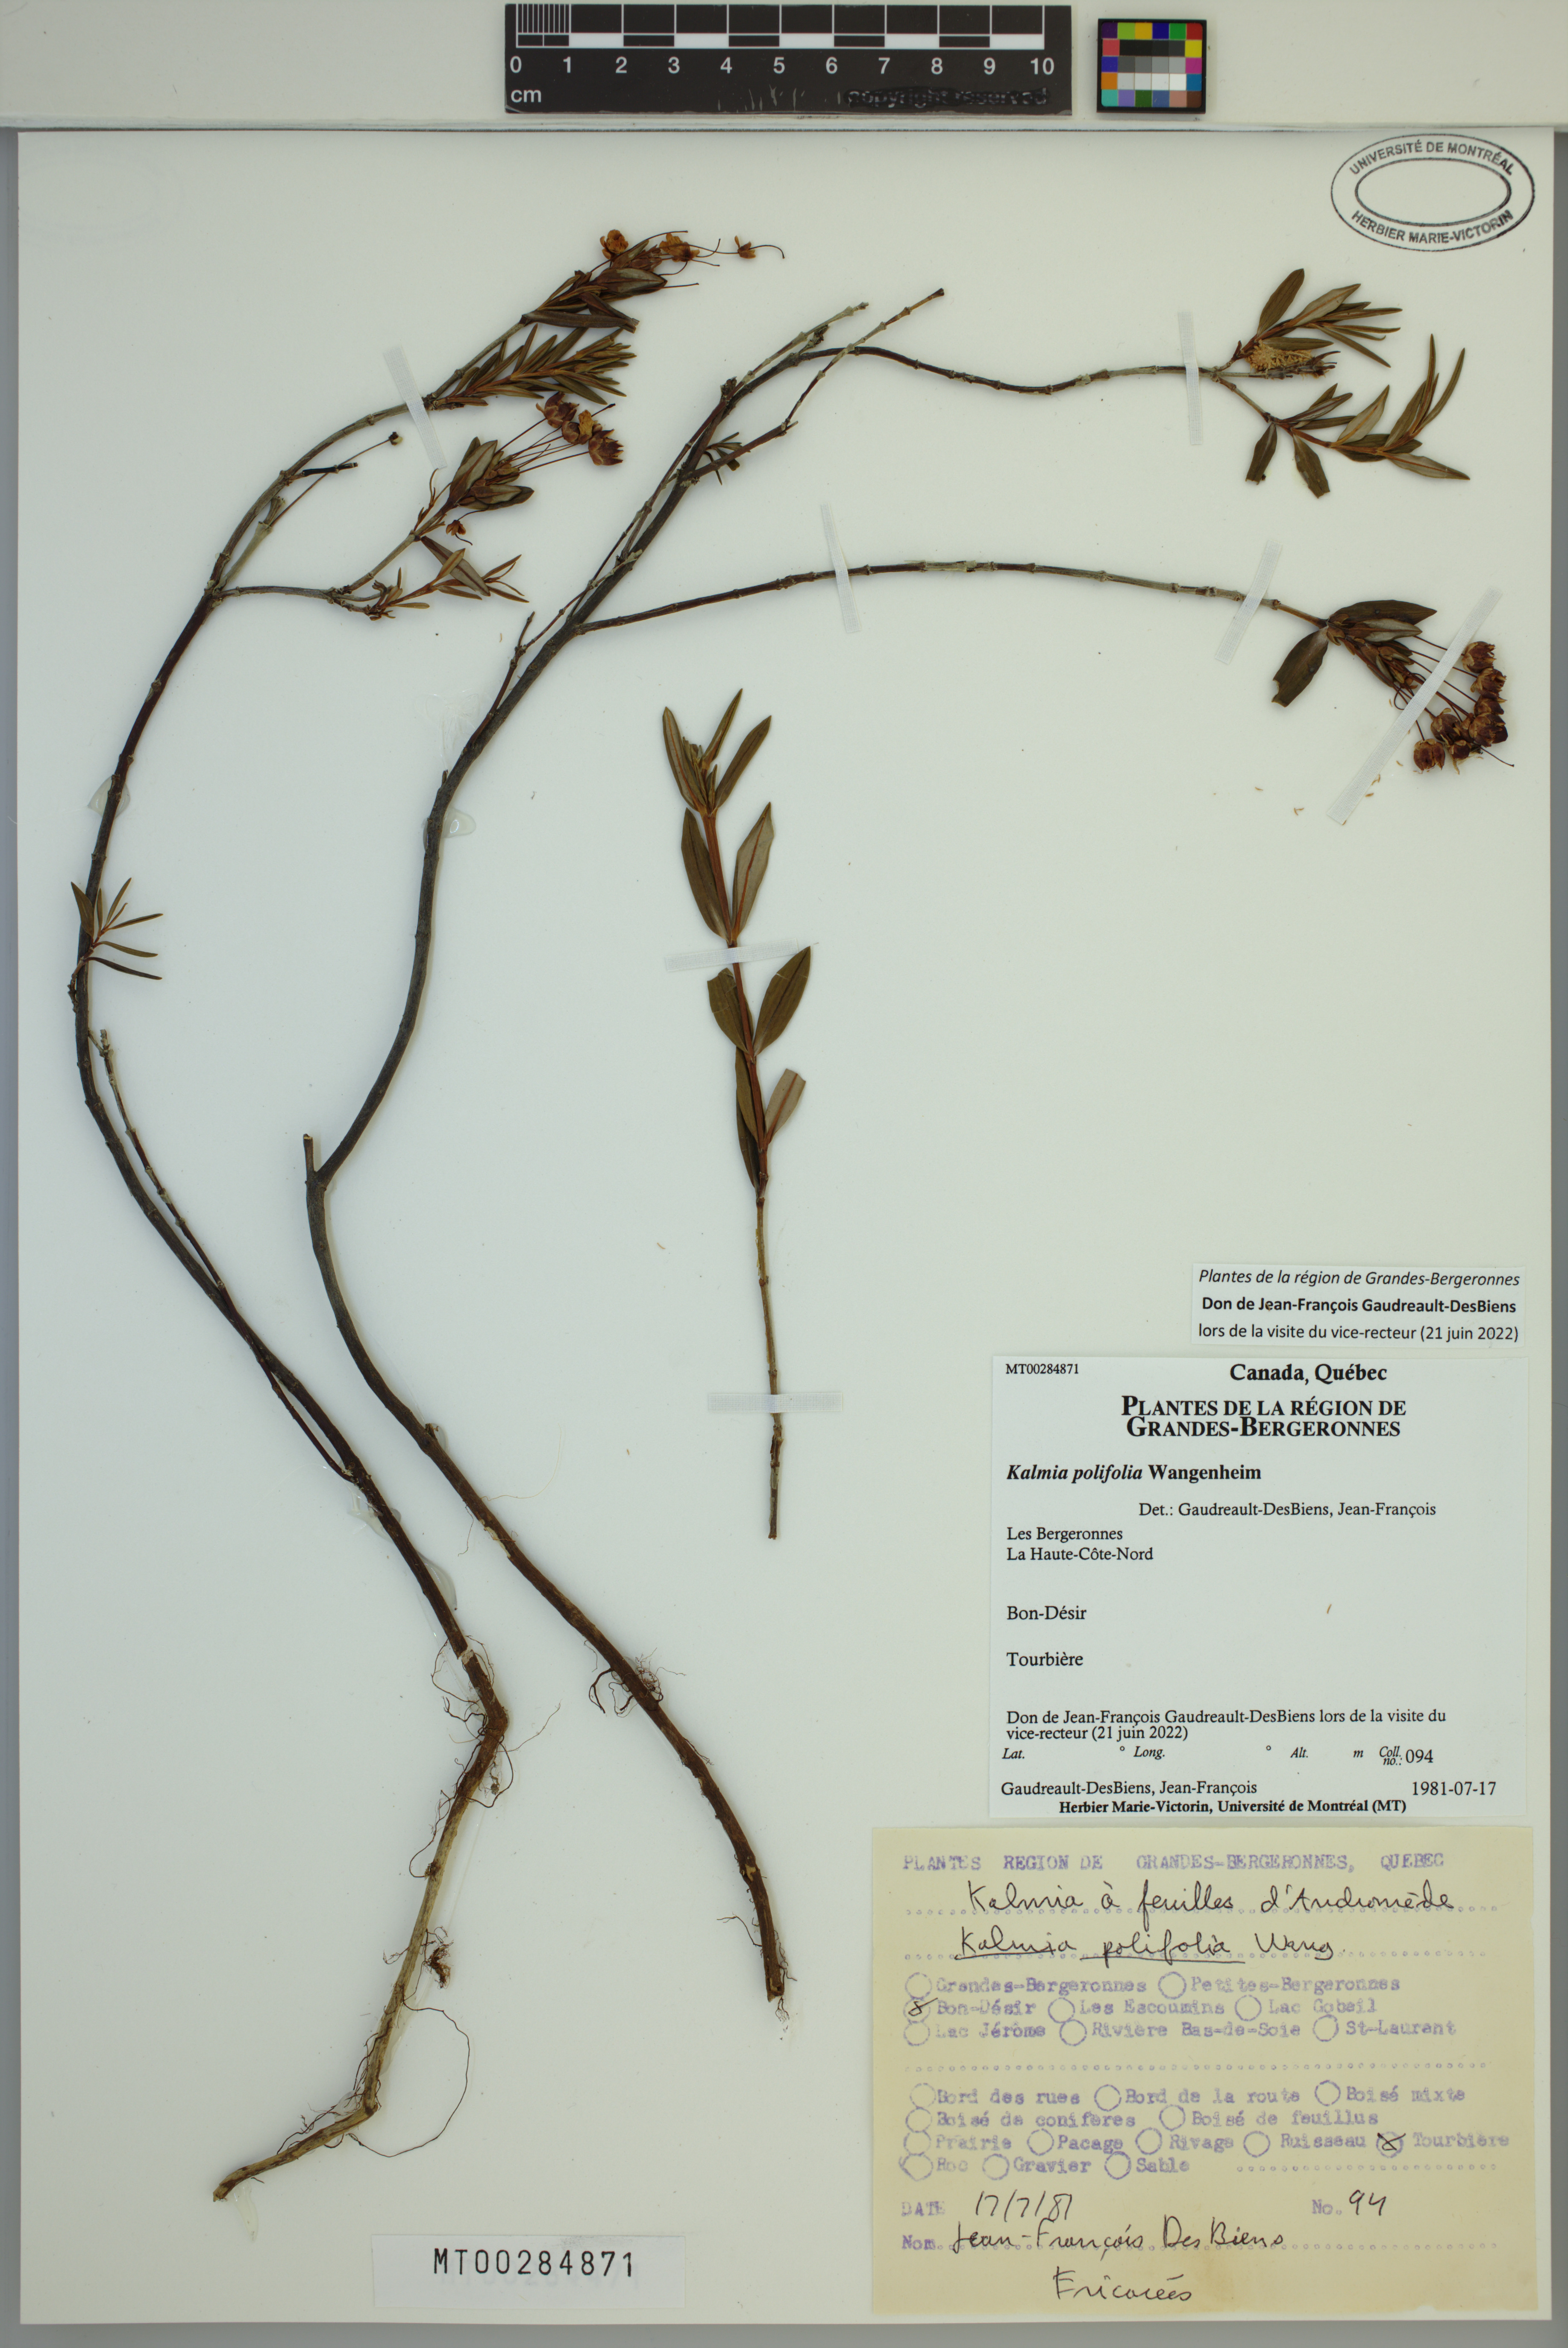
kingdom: Plantae
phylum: Tracheophyta
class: Magnoliopsida
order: Ericales
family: Ericaceae
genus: Kalmia
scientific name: Kalmia polifolia
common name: Bog-laurel
